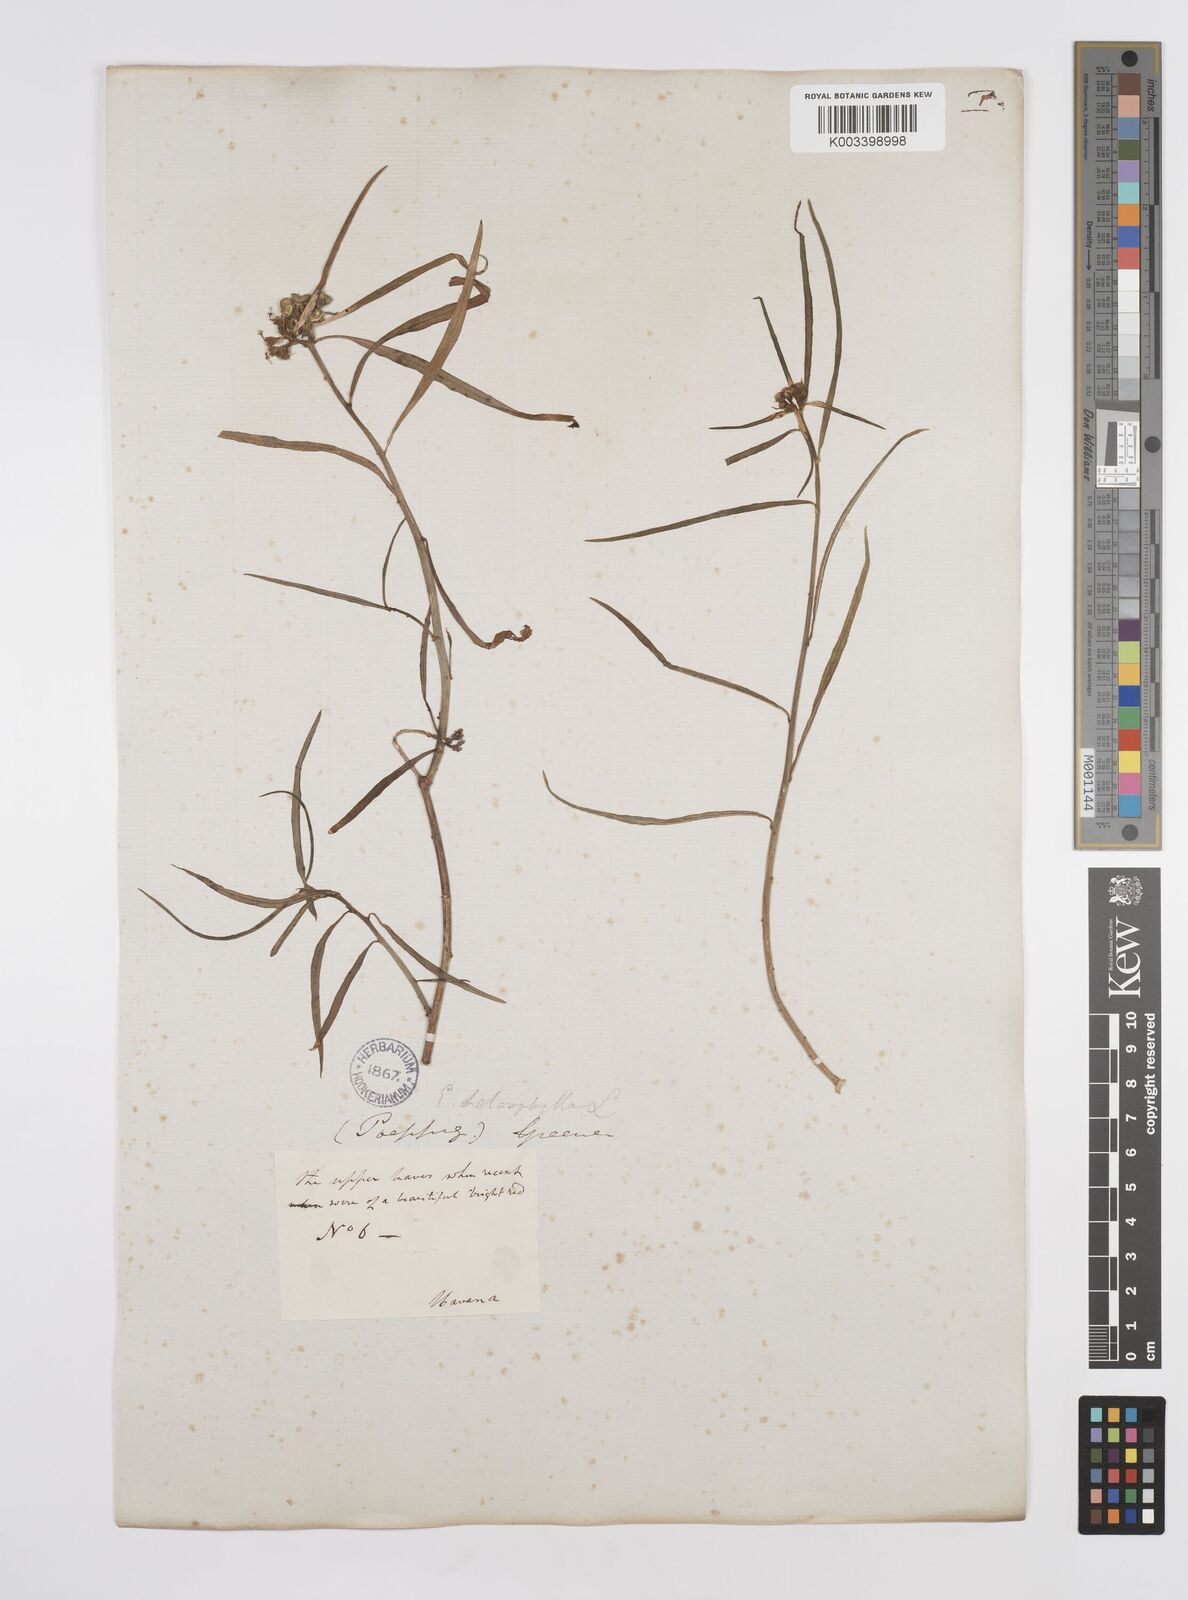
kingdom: Plantae
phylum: Tracheophyta
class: Magnoliopsida
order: Malpighiales
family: Euphorbiaceae
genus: Euphorbia
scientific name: Euphorbia heterophylla
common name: Mexican fireplant
